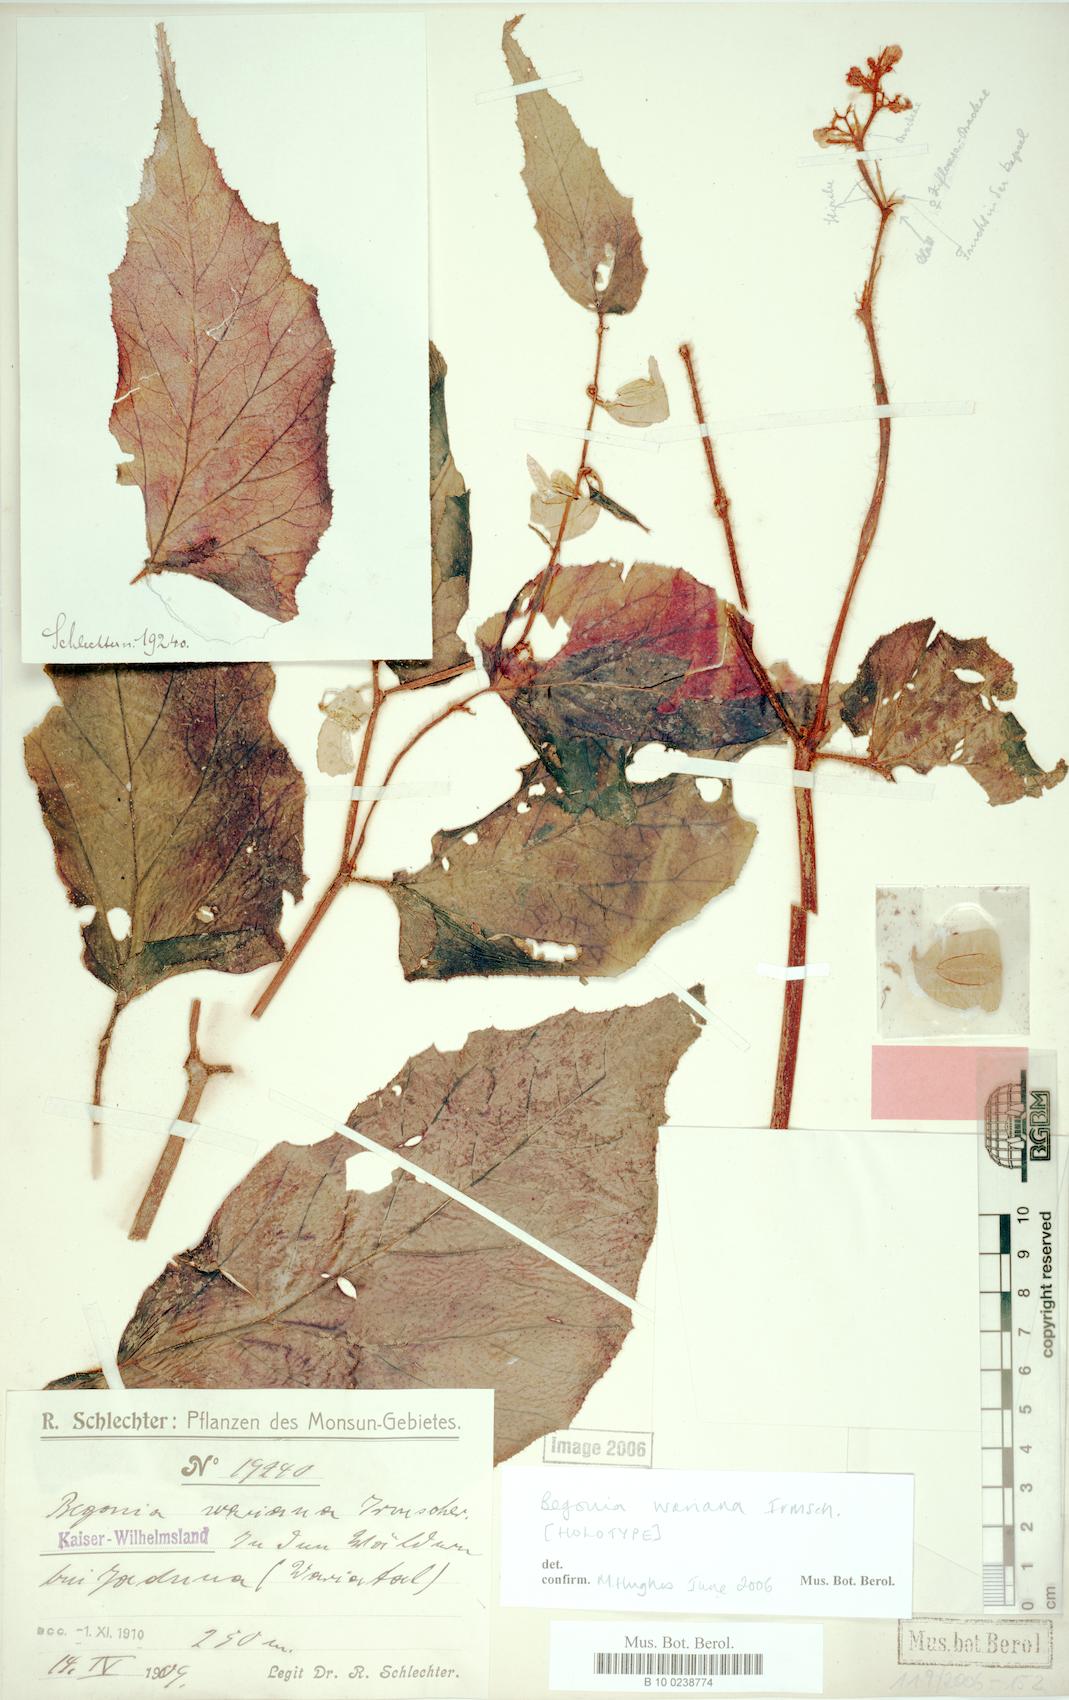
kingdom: Plantae
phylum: Tracheophyta
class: Magnoliopsida
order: Cucurbitales
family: Begoniaceae
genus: Begonia
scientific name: Begonia wariana
